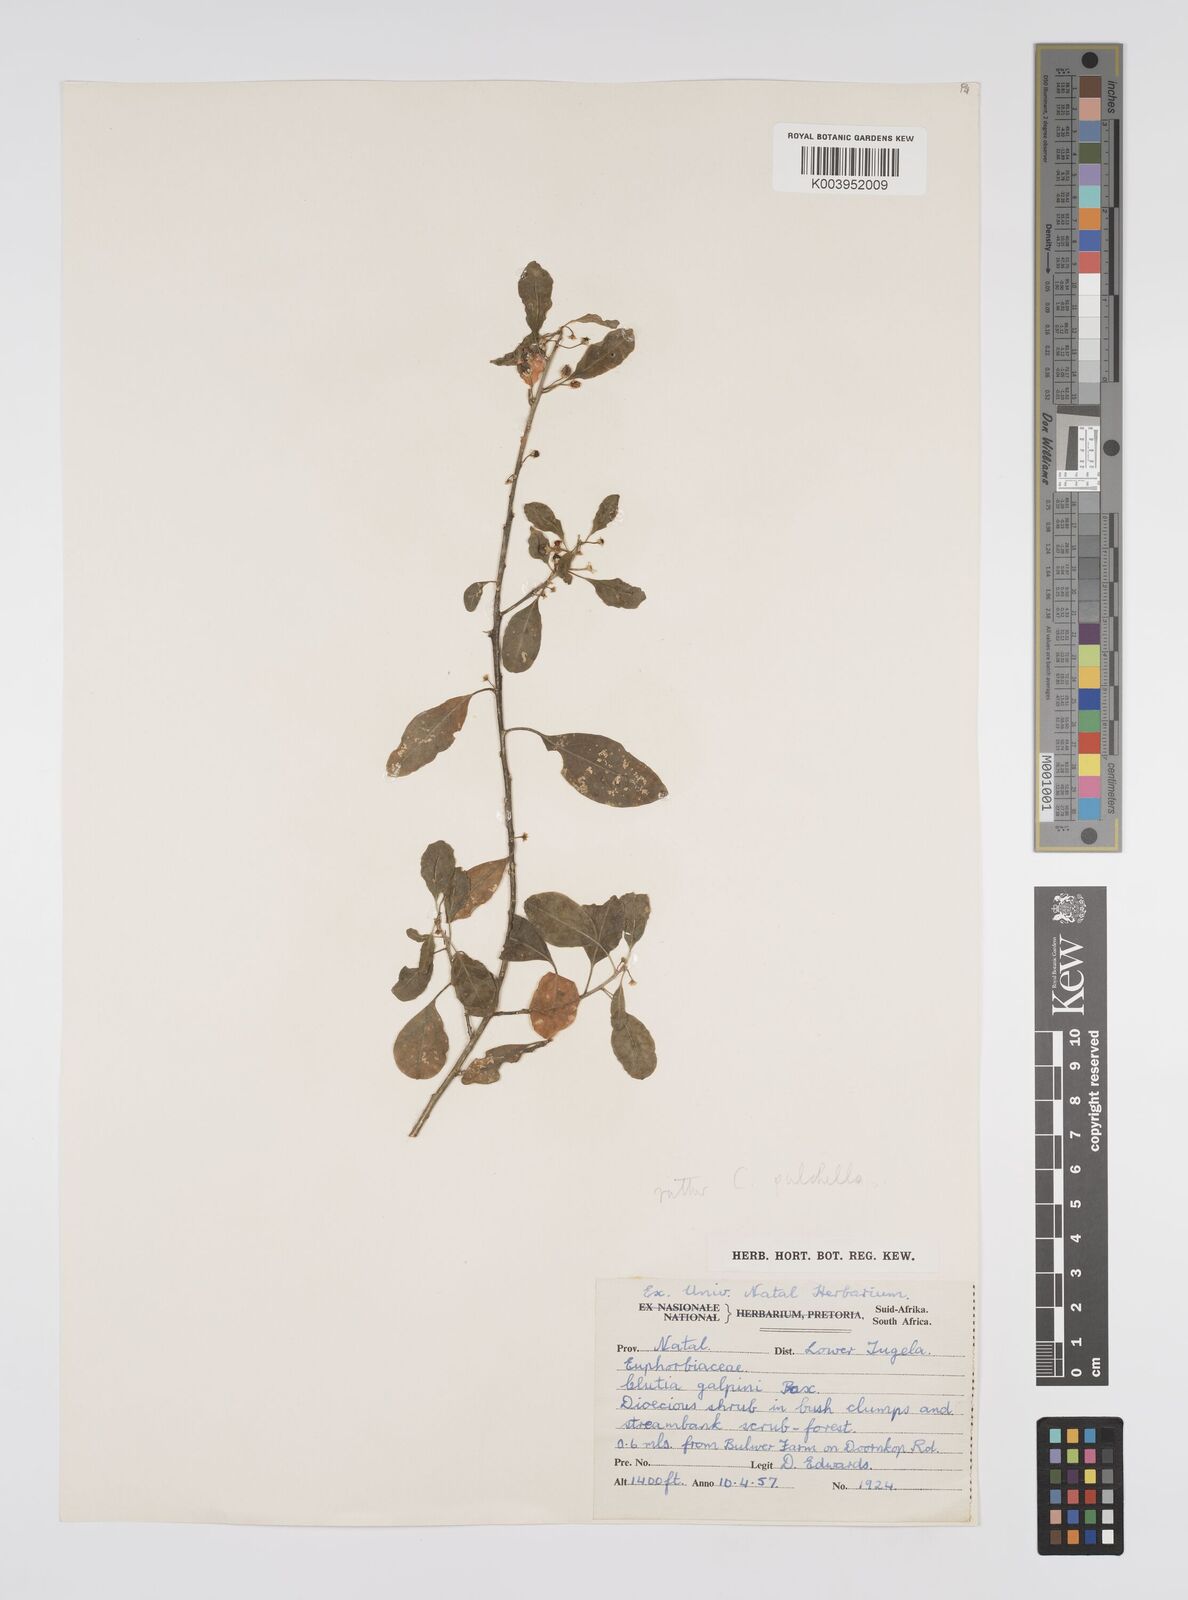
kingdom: Plantae
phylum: Tracheophyta
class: Magnoliopsida
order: Malpighiales
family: Peraceae
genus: Clutia
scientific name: Clutia pulchella
